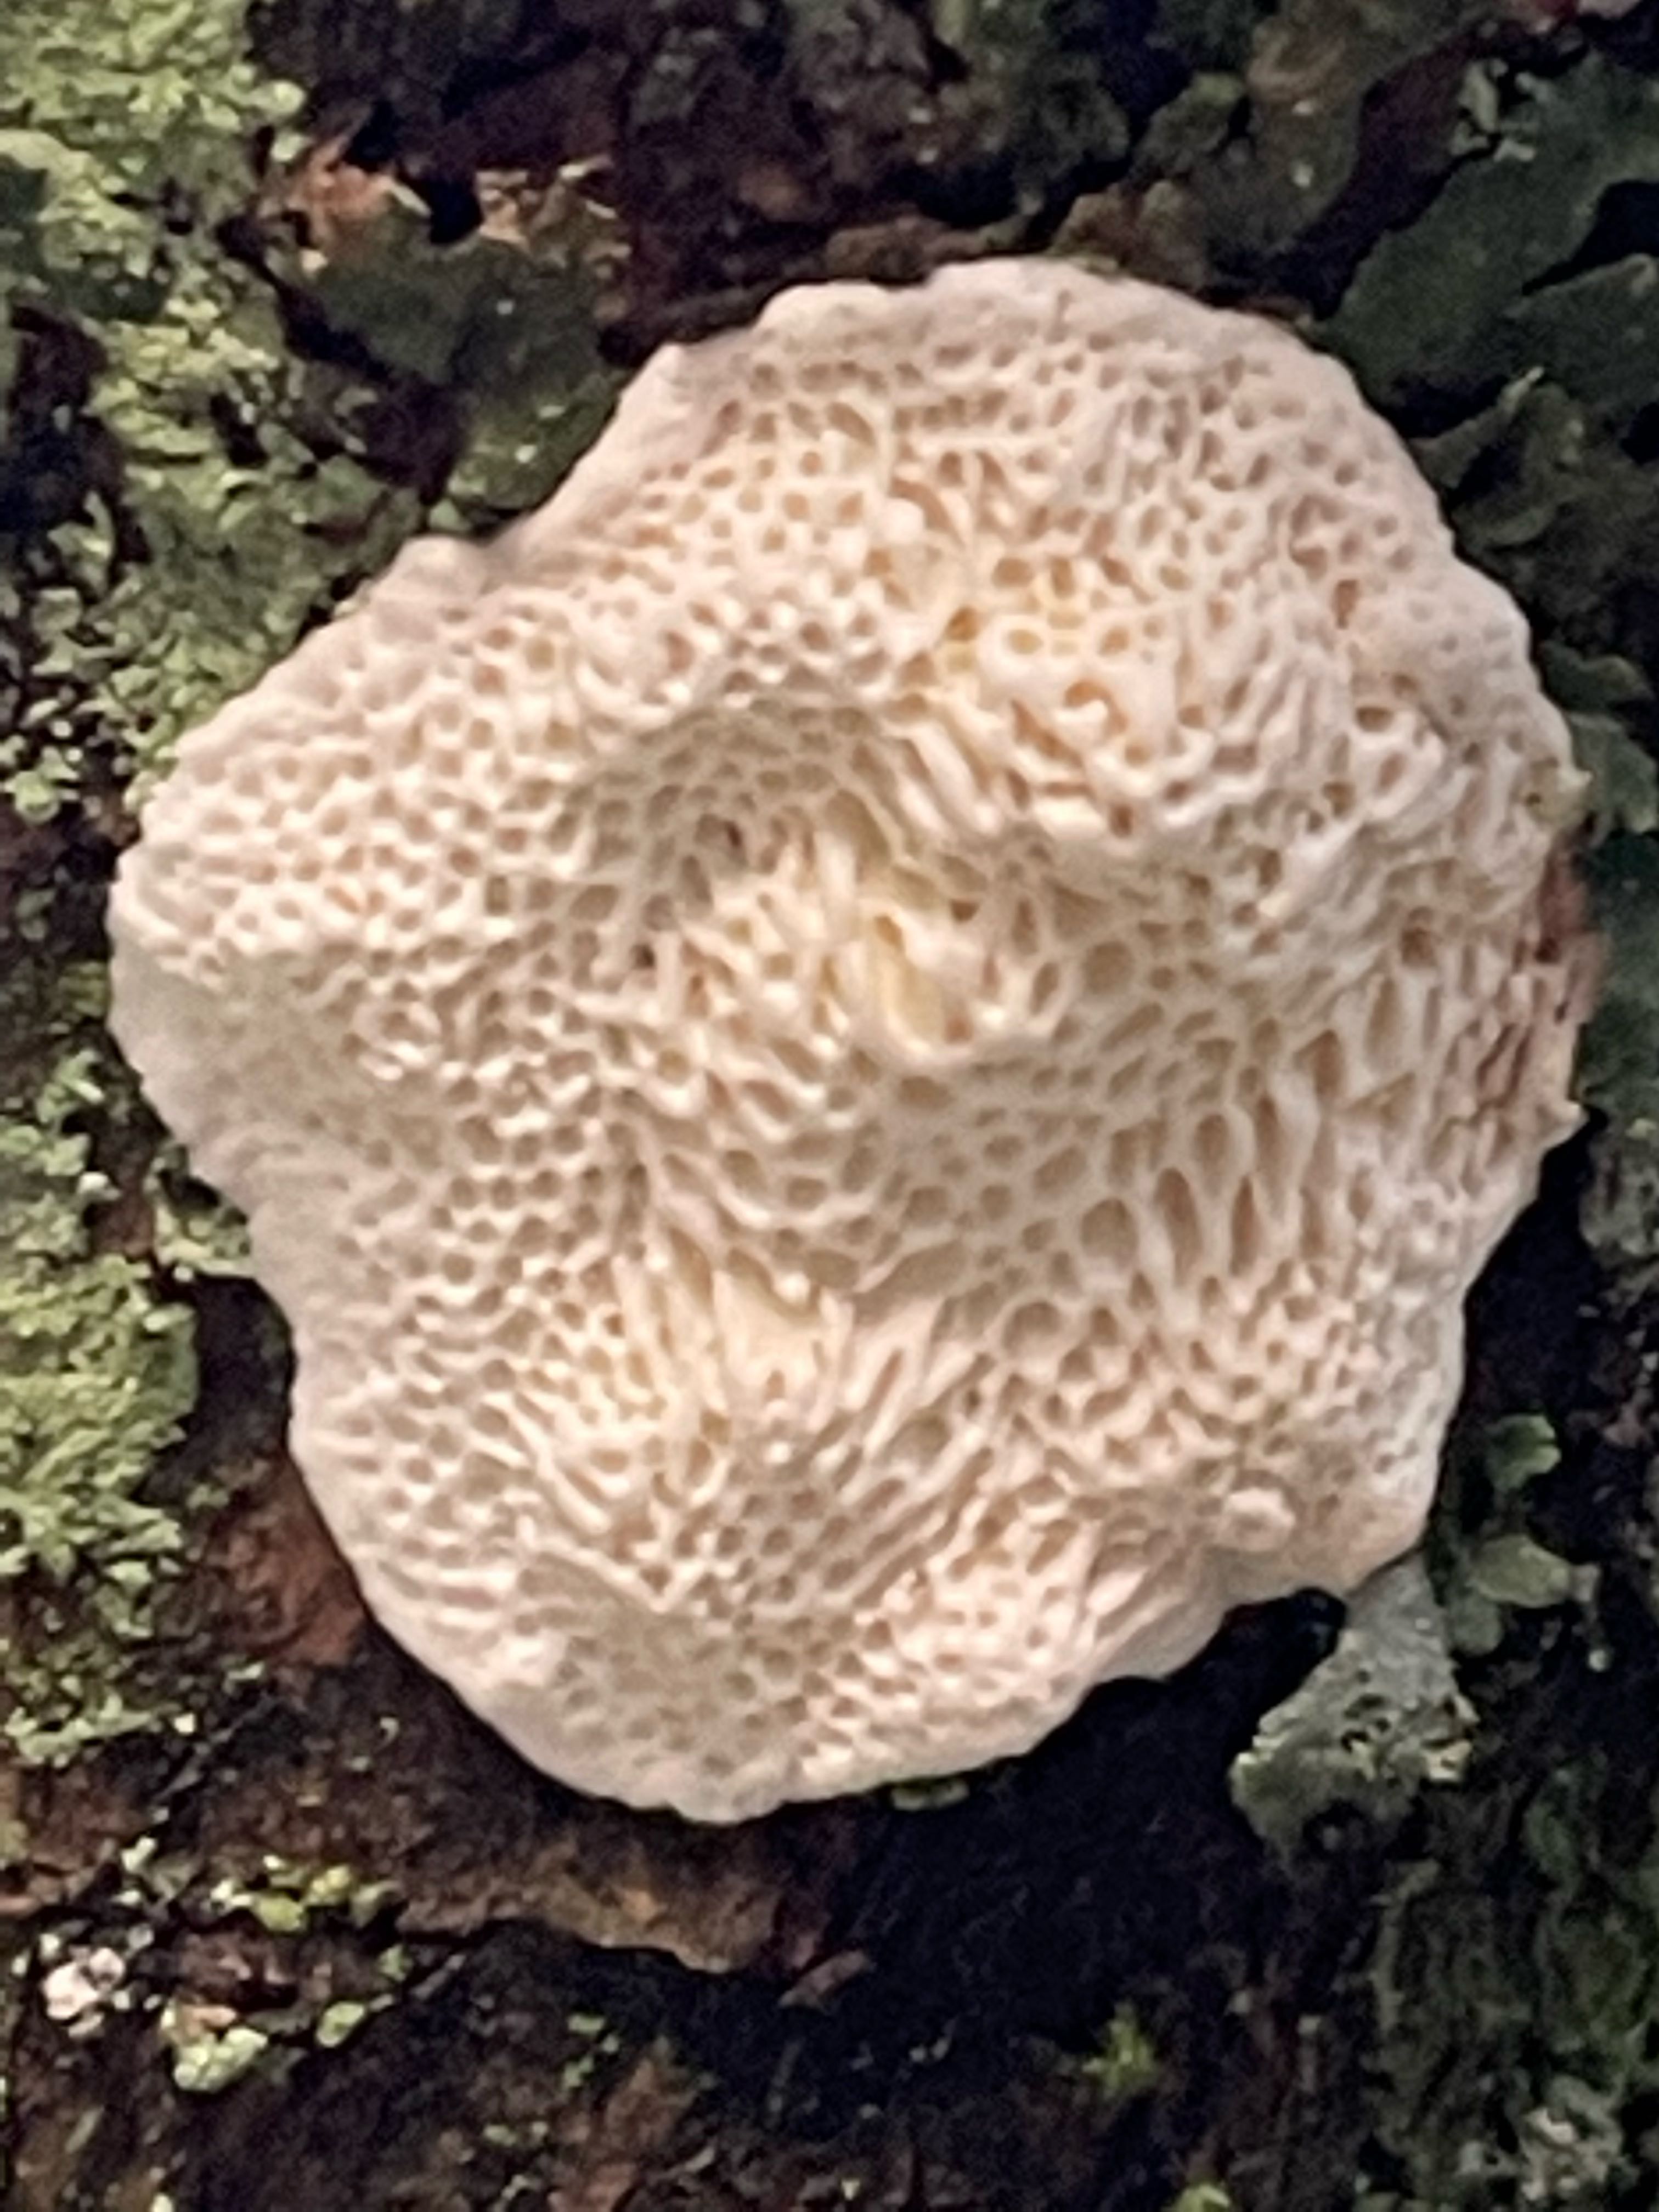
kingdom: Fungi
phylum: Basidiomycota
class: Agaricomycetes
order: Polyporales
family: Fomitopsidaceae
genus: Fomitopsis
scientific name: Fomitopsis
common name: fyrre-skiveporesvamp
